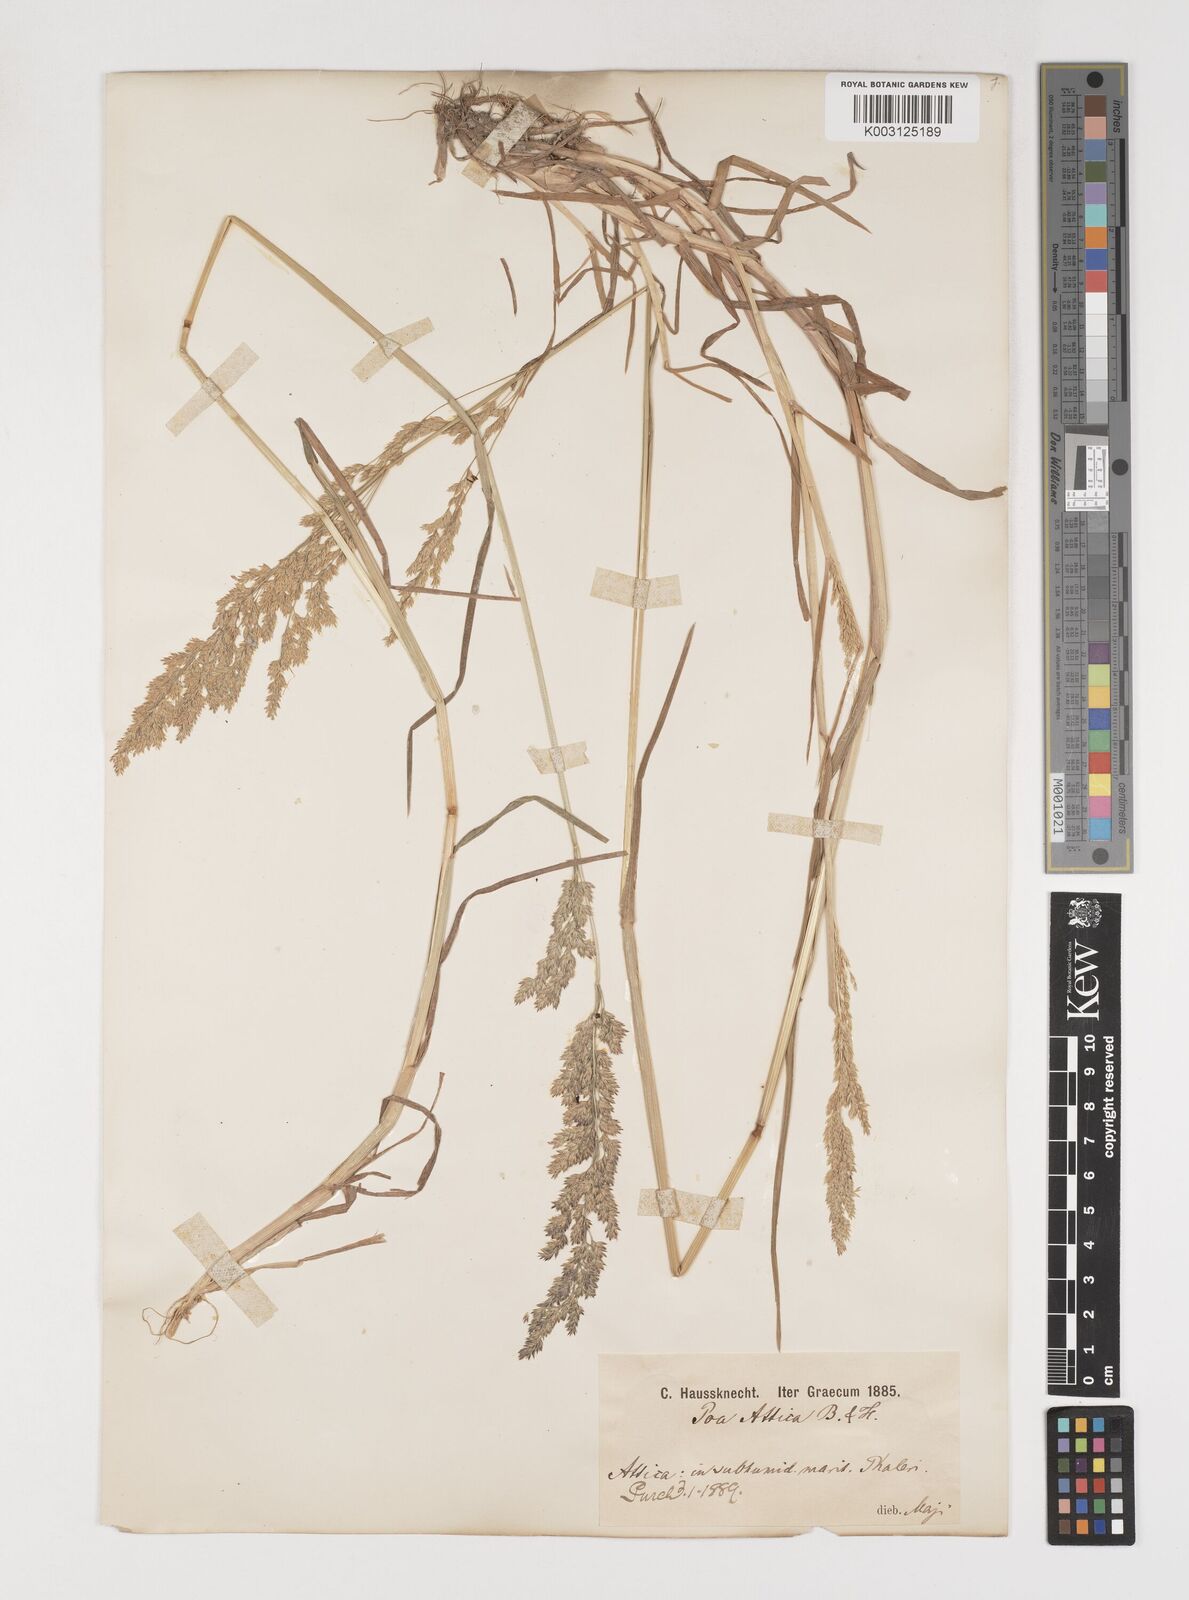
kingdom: Plantae
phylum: Tracheophyta
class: Liliopsida
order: Poales
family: Poaceae
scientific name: Poaceae
